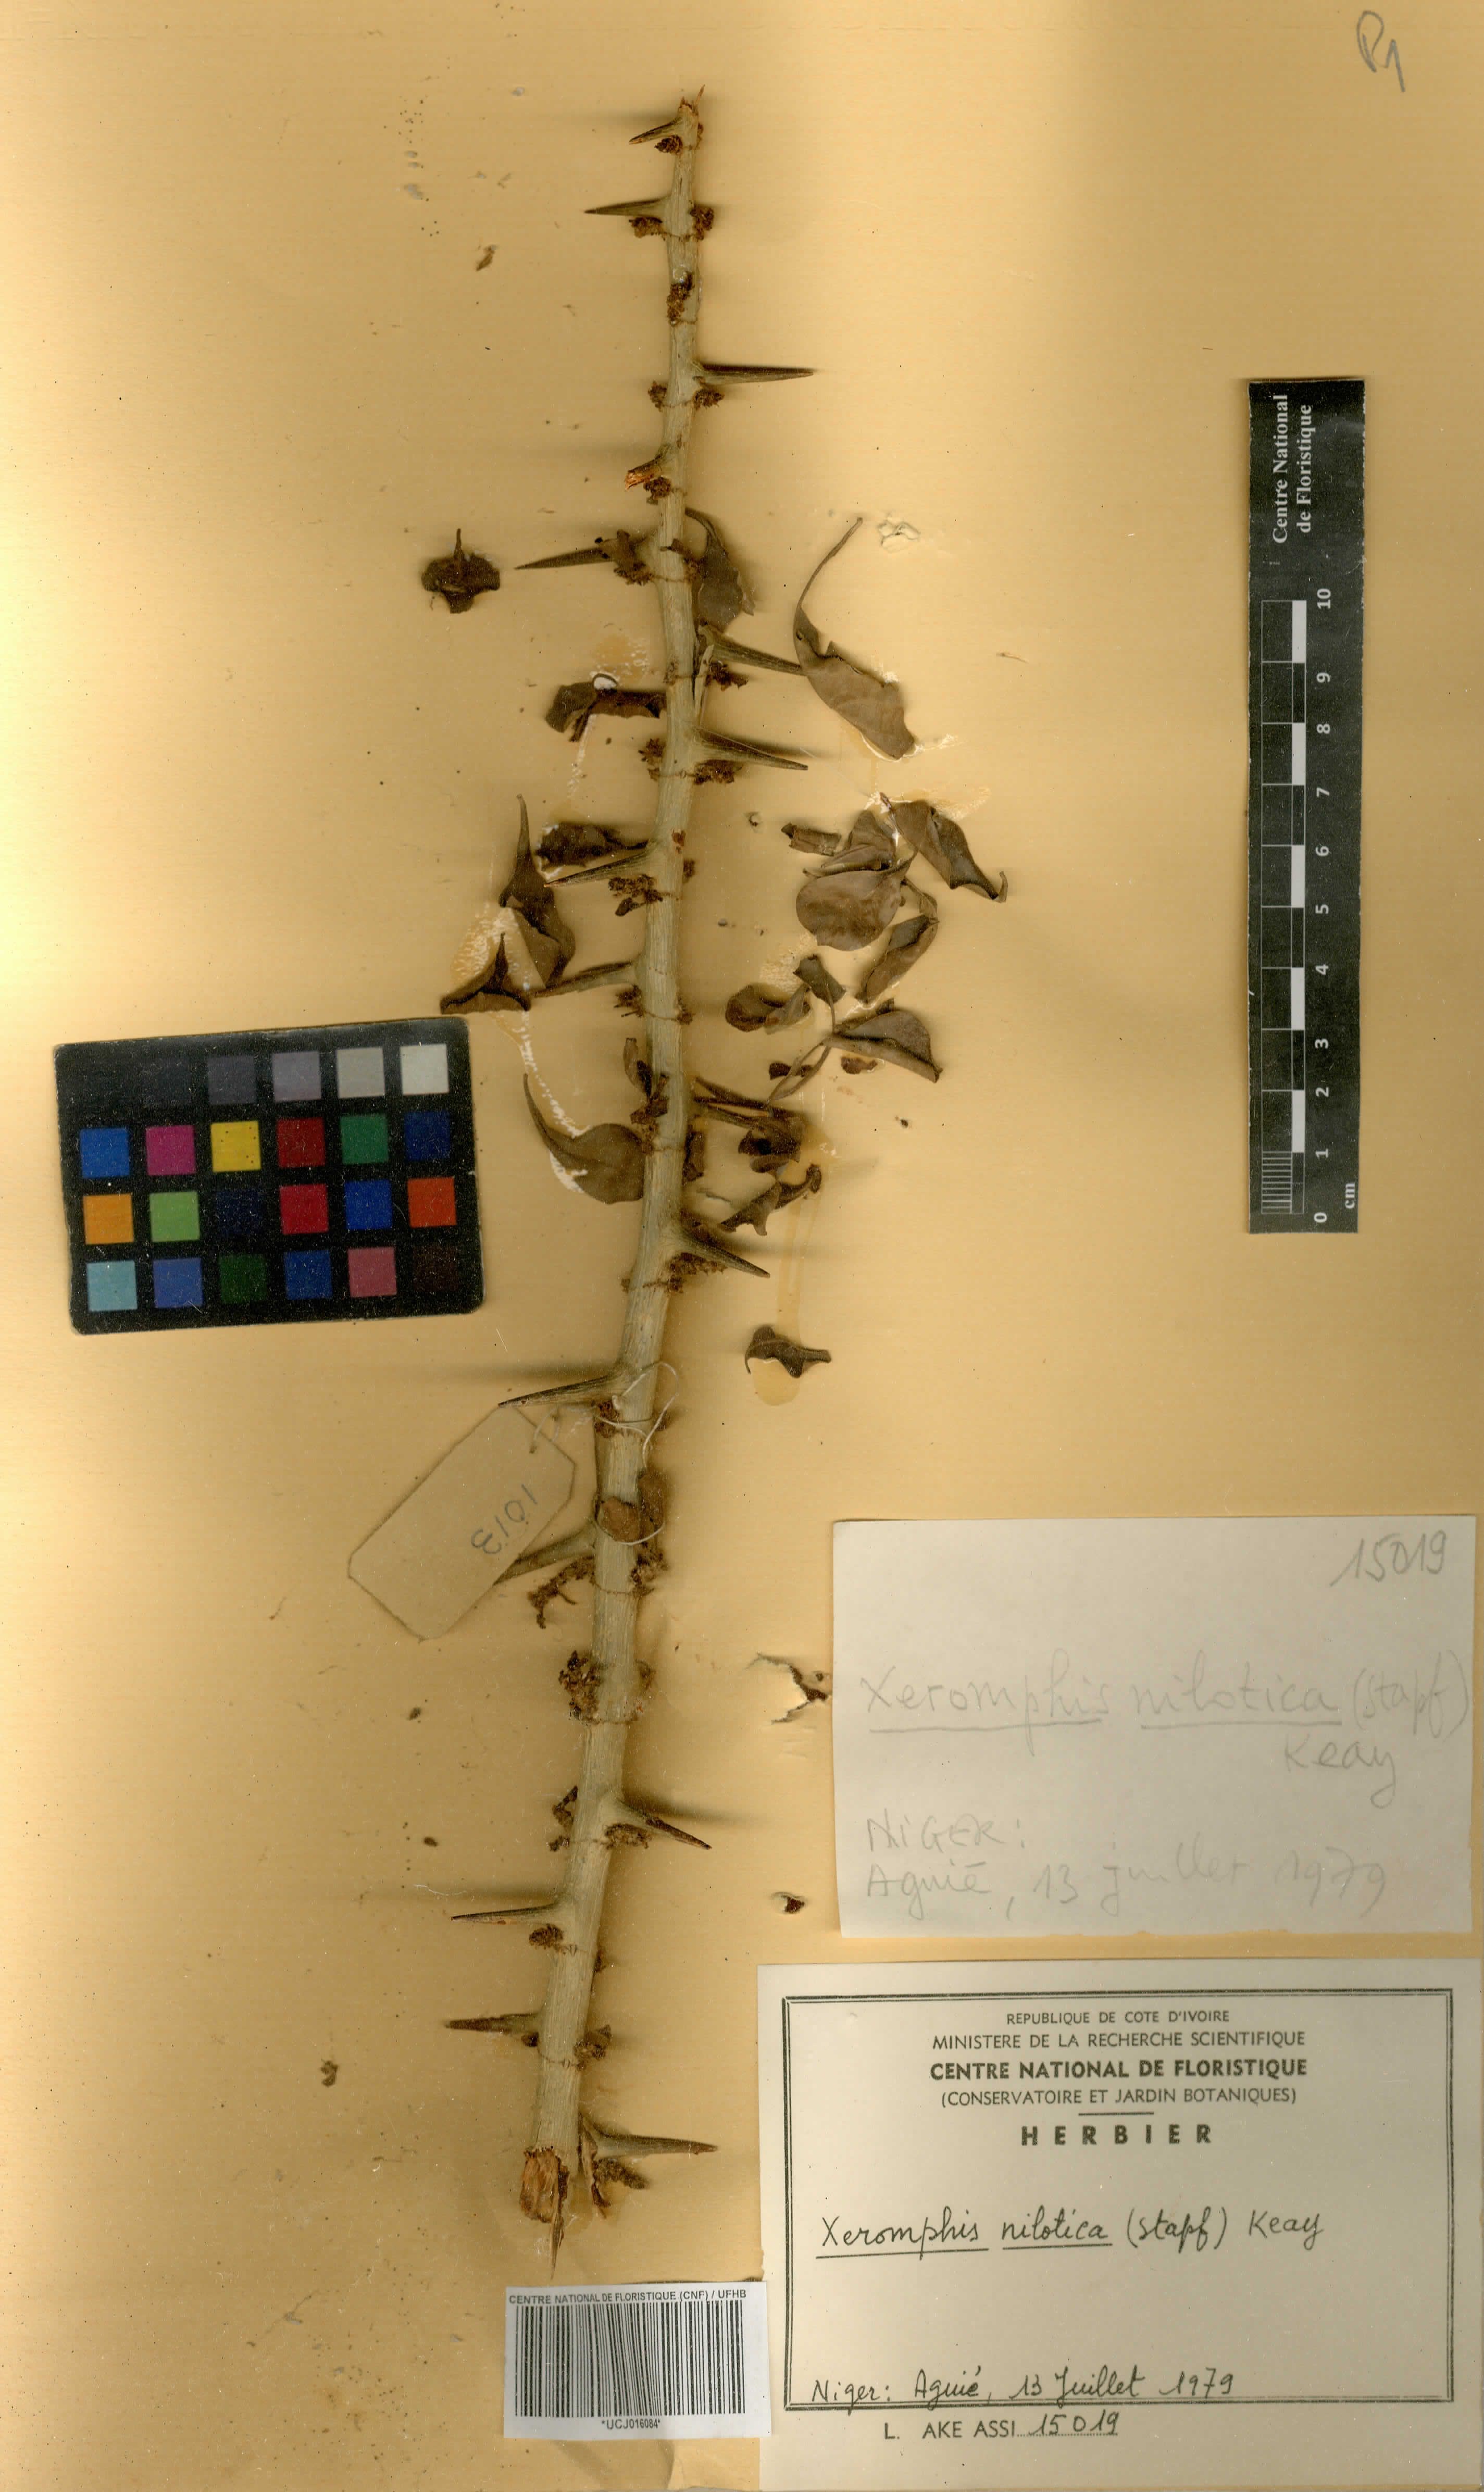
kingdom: Plantae
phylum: Tracheophyta
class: Magnoliopsida
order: Gentianales
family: Rubiaceae
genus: Catunaregam
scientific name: Catunaregam nilotica
